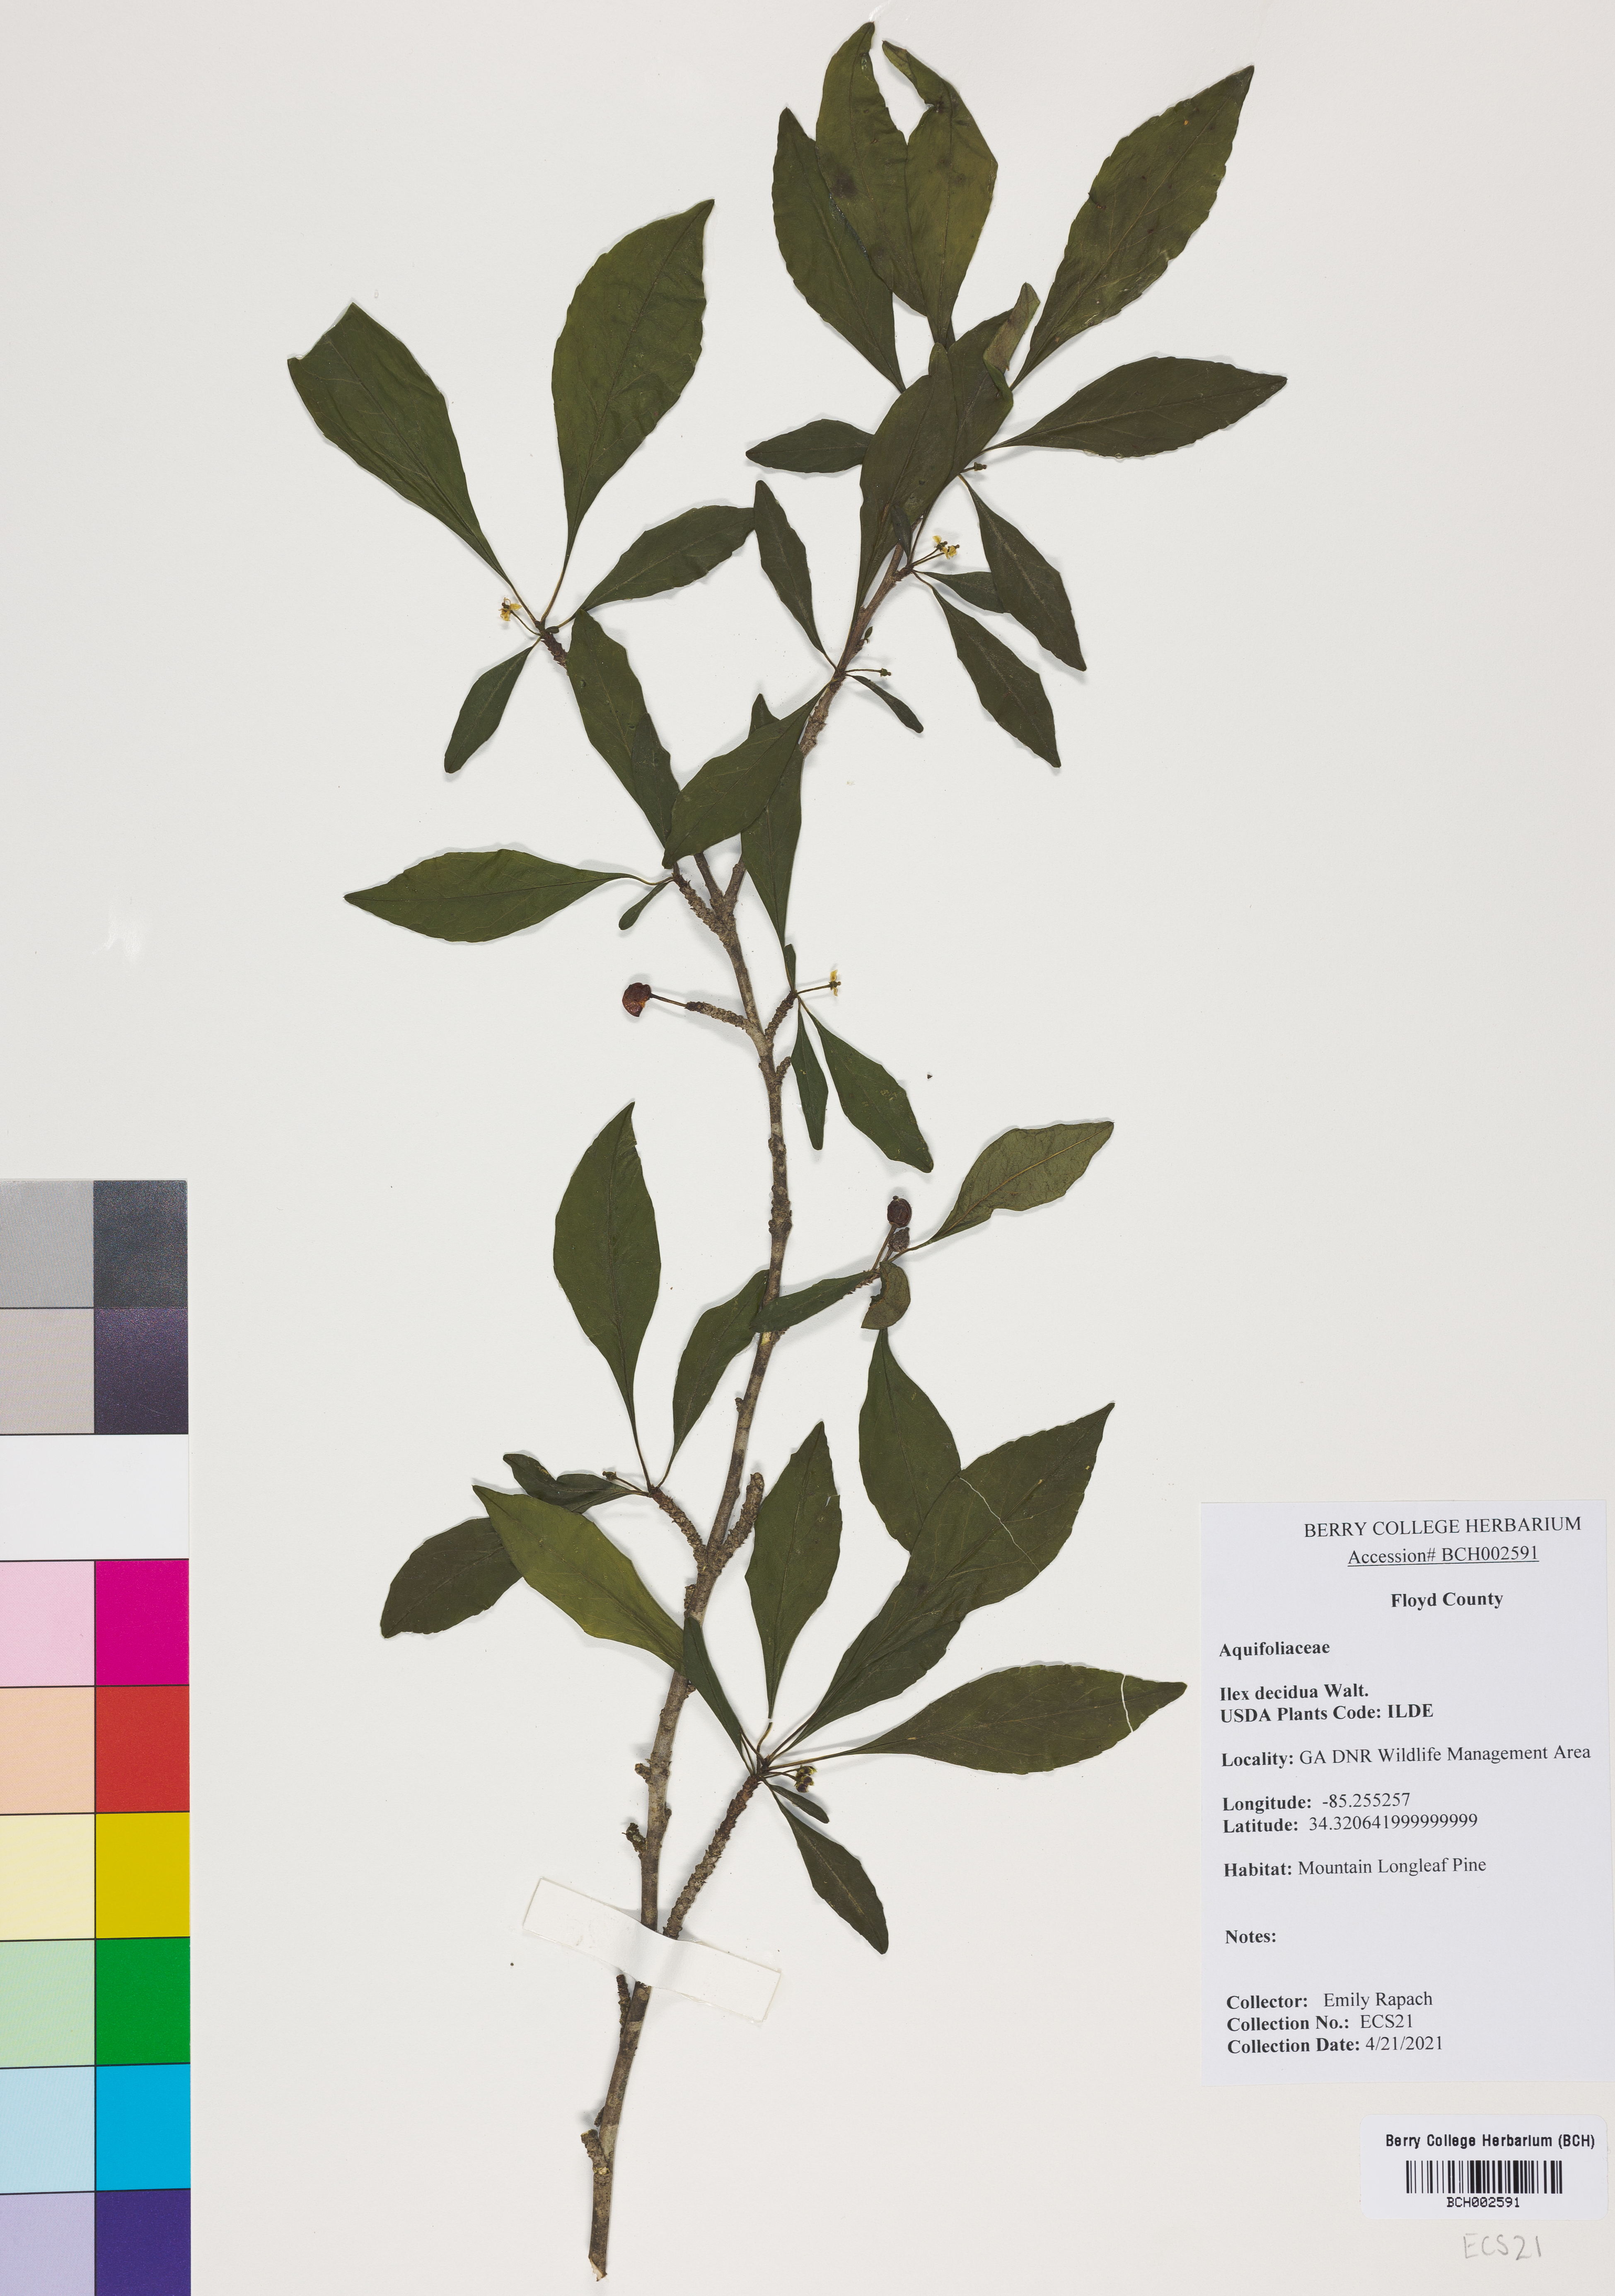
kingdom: Plantae
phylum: Tracheophyta
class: Magnoliopsida
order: Aquifoliales
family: Aquifoliaceae
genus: Ilex
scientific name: Ilex decidua
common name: Possum-haw
